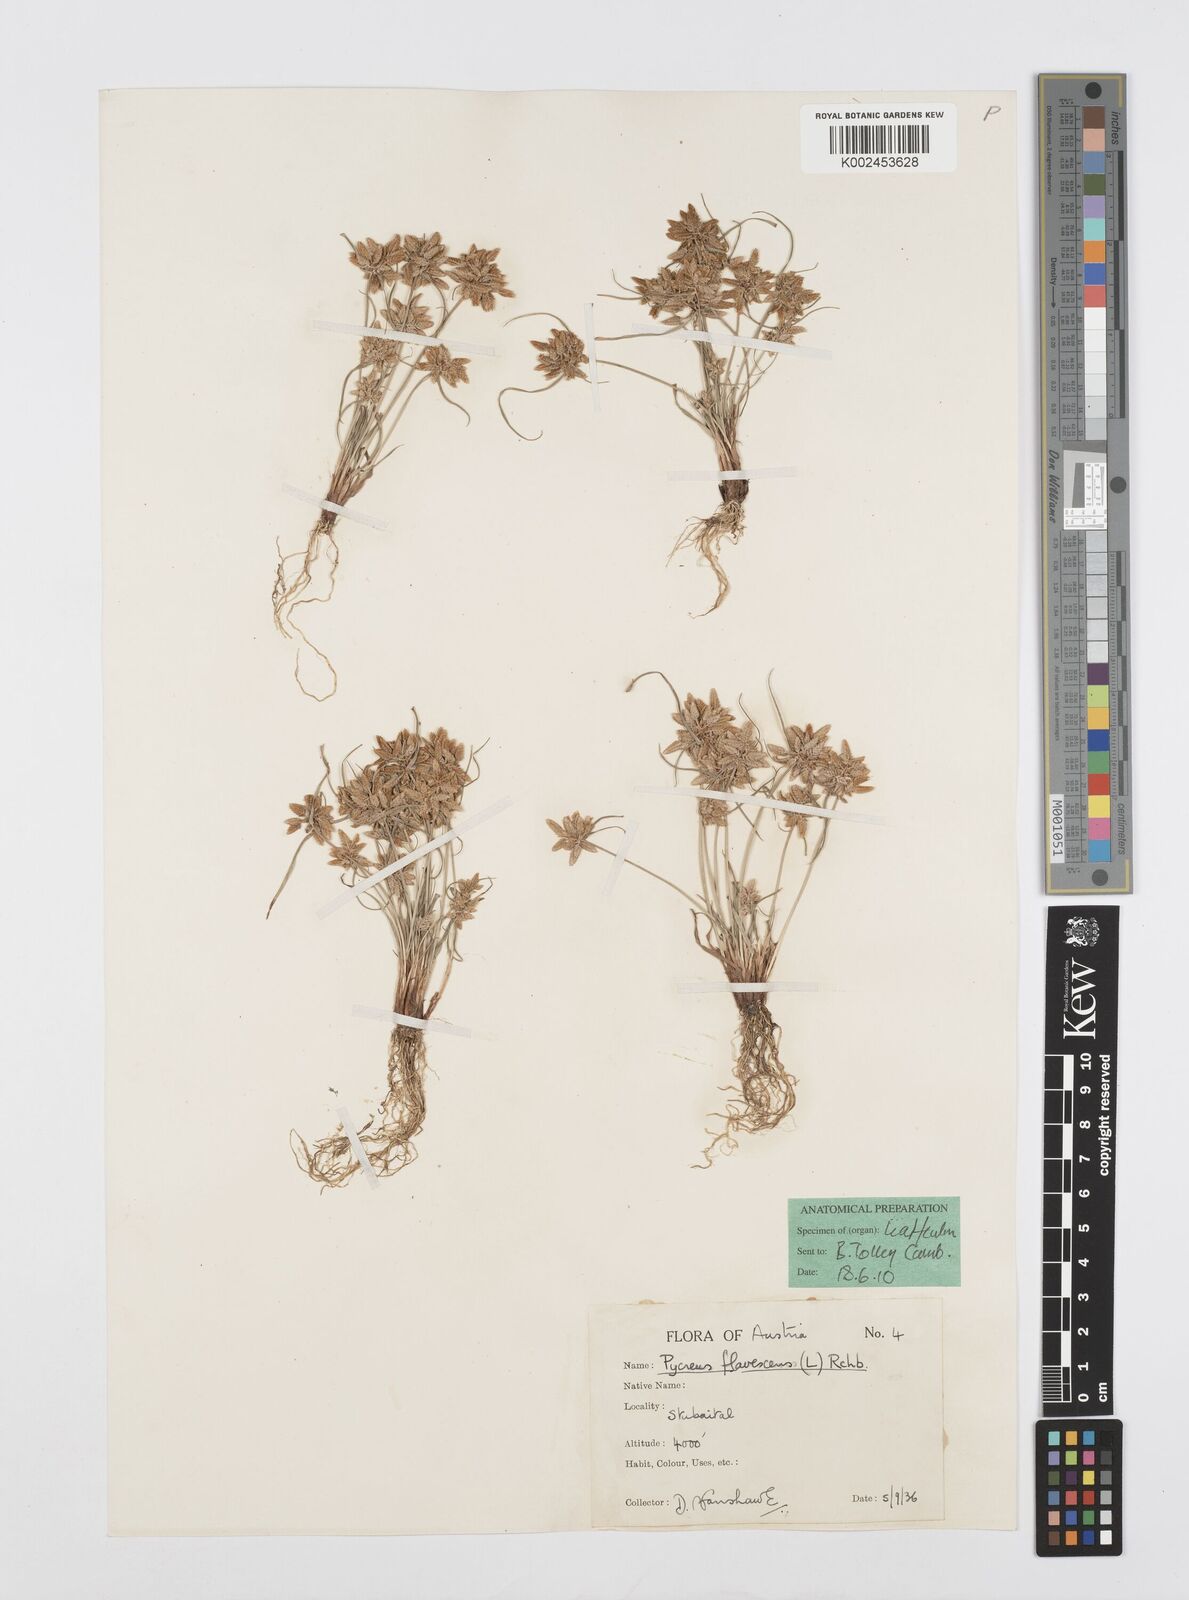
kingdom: Plantae
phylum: Tracheophyta
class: Liliopsida
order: Poales
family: Cyperaceae
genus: Cyperus
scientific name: Cyperus flavescens
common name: Yellow galingale
